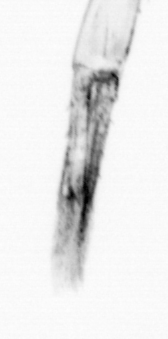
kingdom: Animalia
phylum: Chaetognatha
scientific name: Chaetognatha
